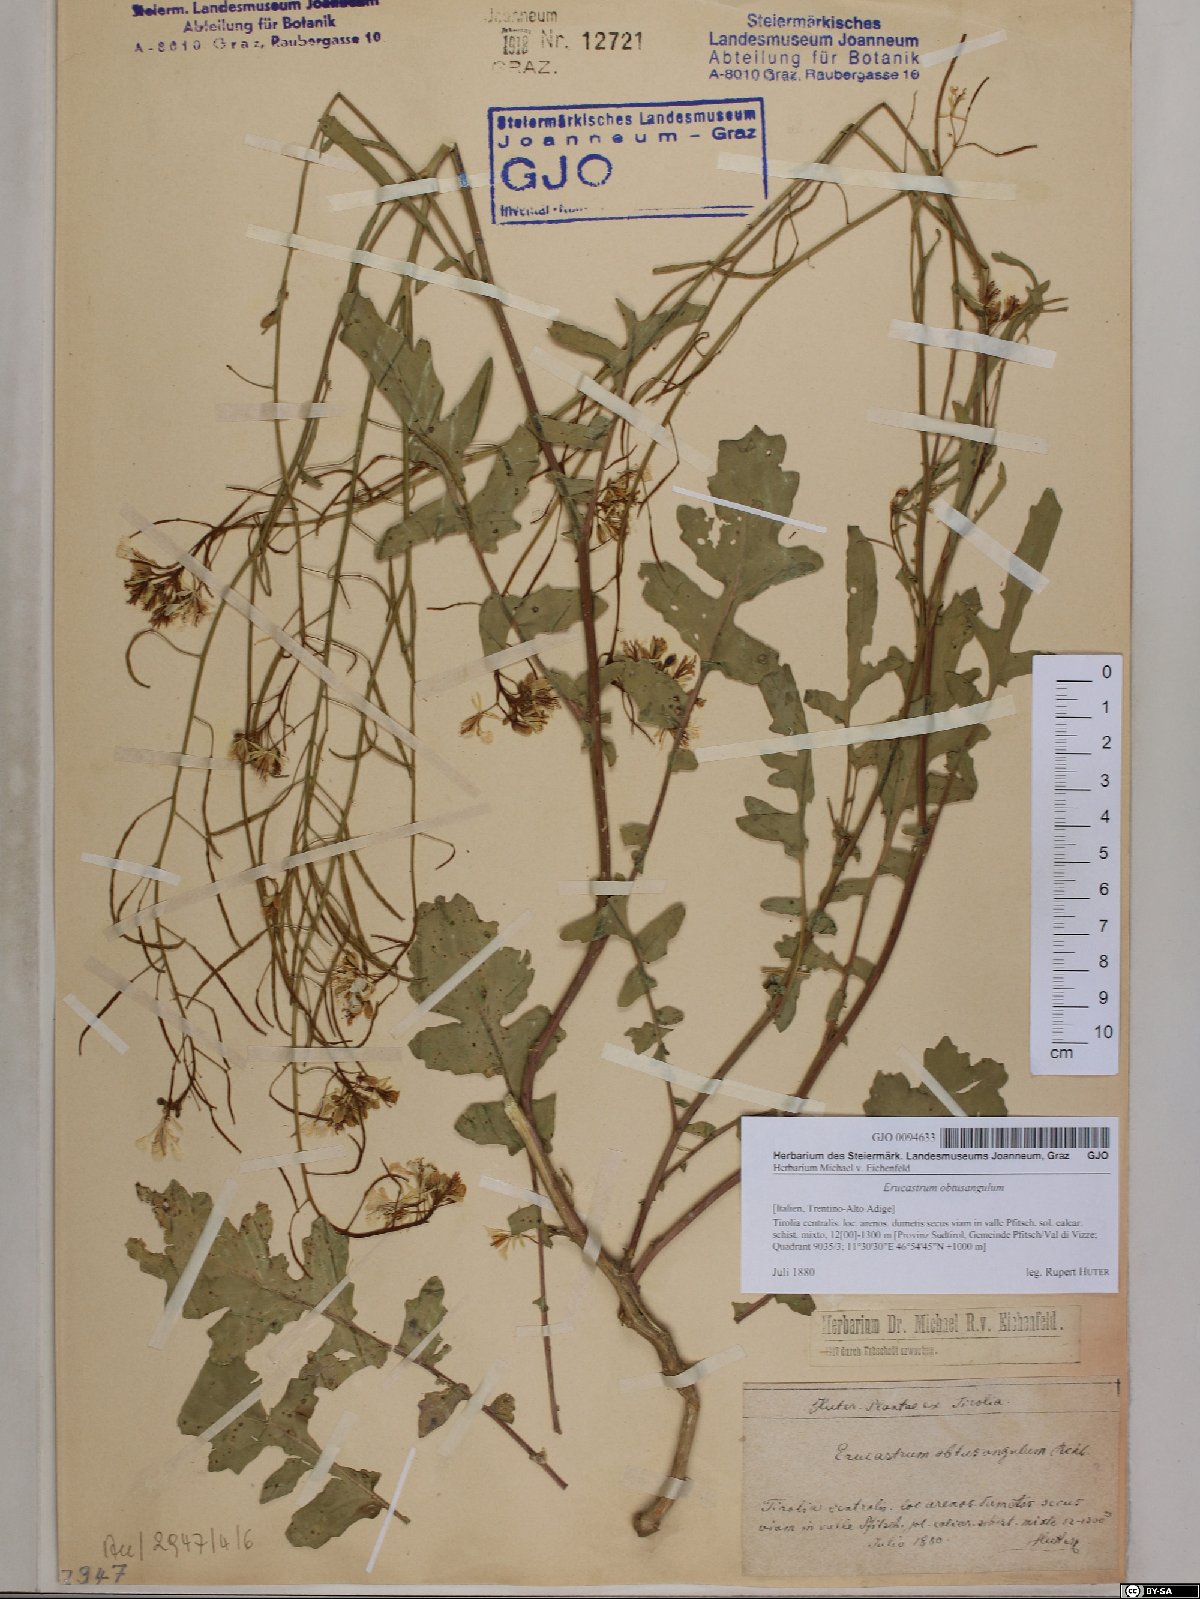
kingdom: Plantae
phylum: Tracheophyta
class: Magnoliopsida
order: Brassicales
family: Brassicaceae
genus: Erucastrum
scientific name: Erucastrum nasturtiifolium
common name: Watercress-leaf rocket
